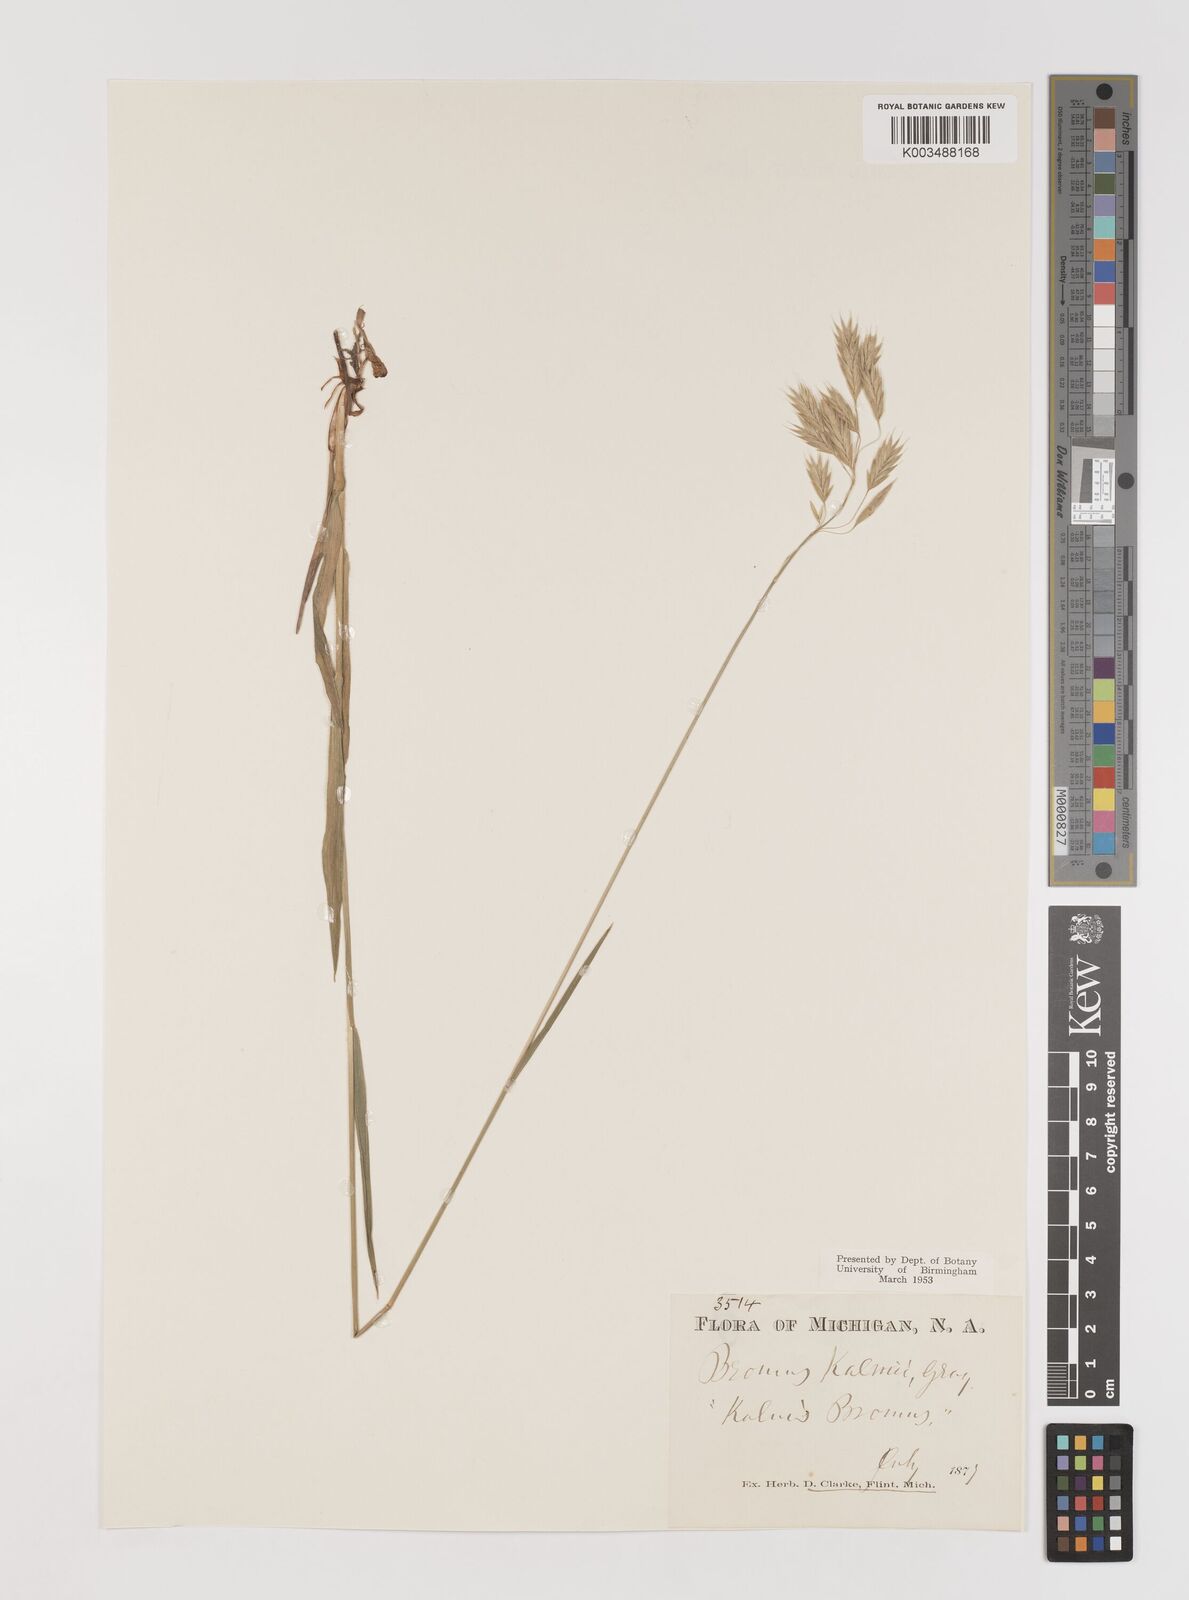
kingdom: Plantae
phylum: Tracheophyta
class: Liliopsida
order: Poales
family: Poaceae
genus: Bromus
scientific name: Bromus kalmii
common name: Kalm brome
